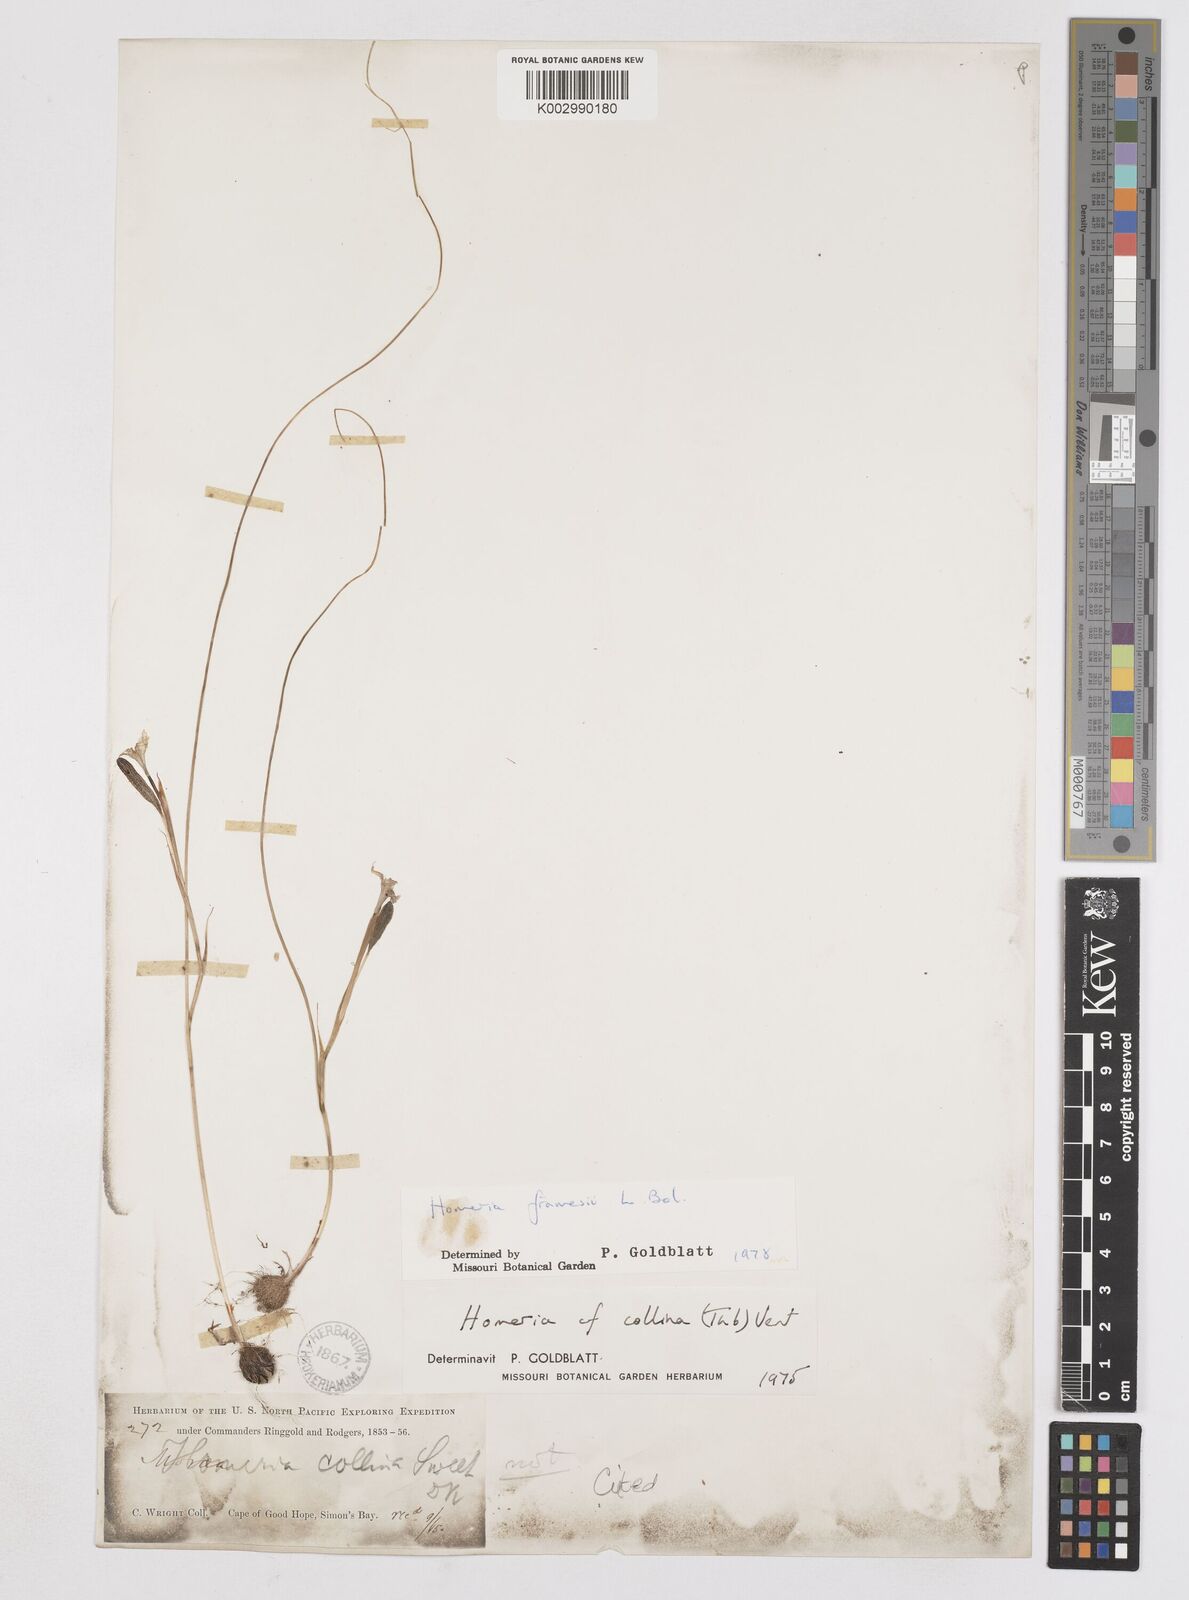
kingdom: Plantae
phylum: Tracheophyta
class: Liliopsida
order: Asparagales
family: Iridaceae
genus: Moraea
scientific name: Moraea minor
